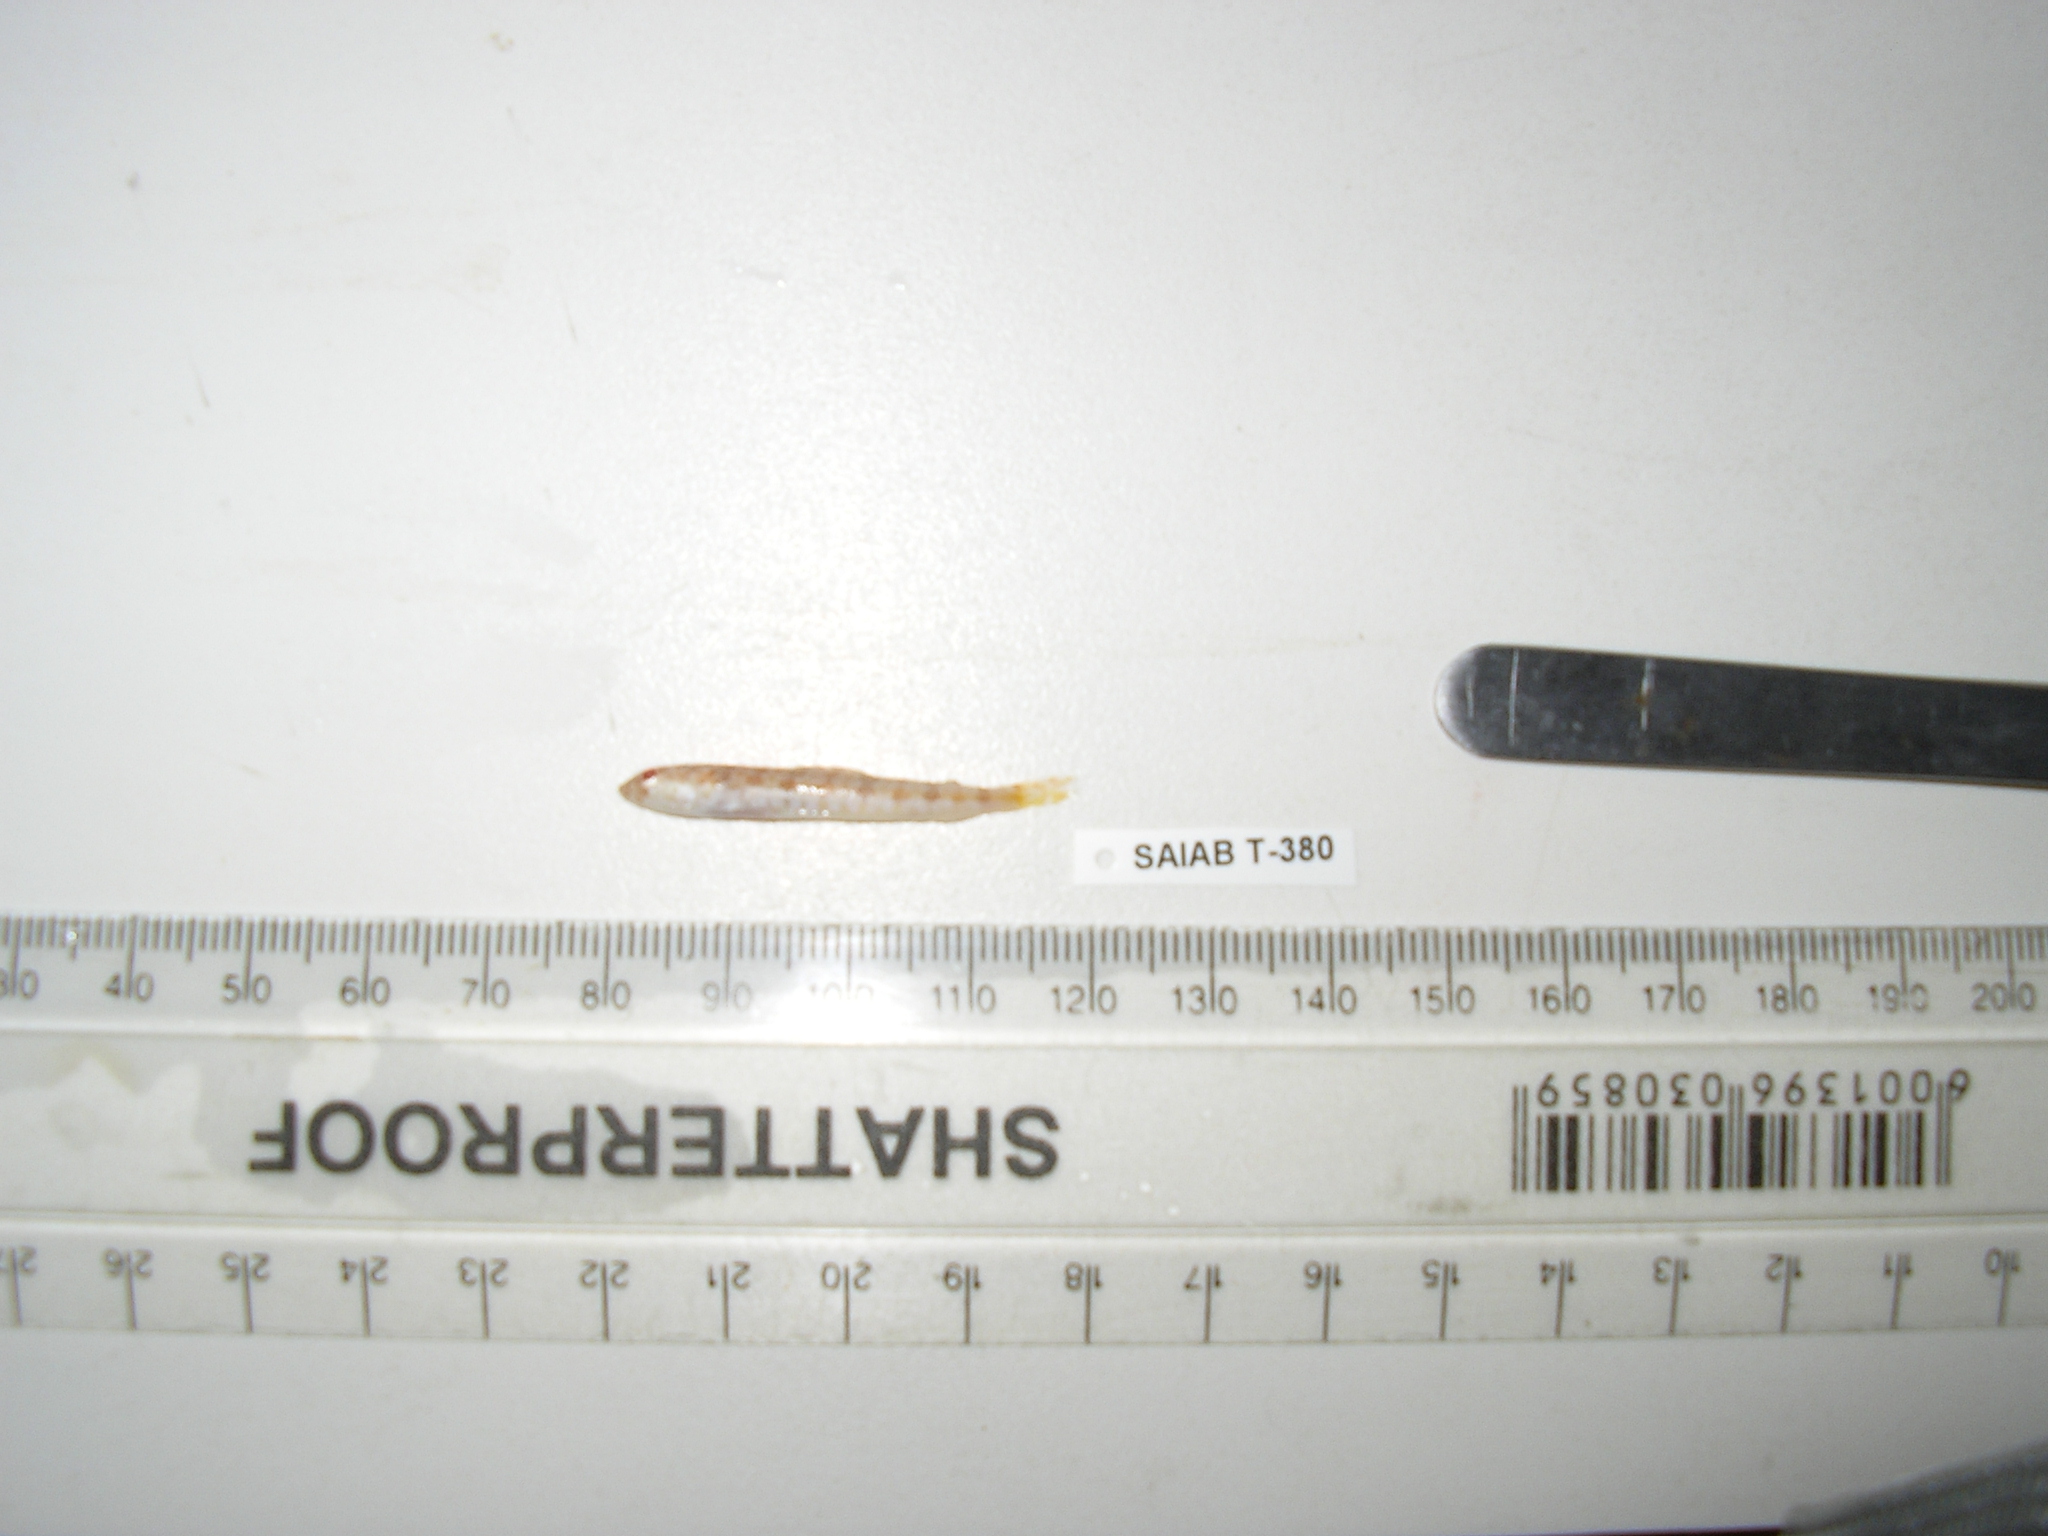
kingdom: Animalia
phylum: Chordata
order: Aulopiformes
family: Synodontidae
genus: Synodus
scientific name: Synodus binotatus
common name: Twospot lizardfish
